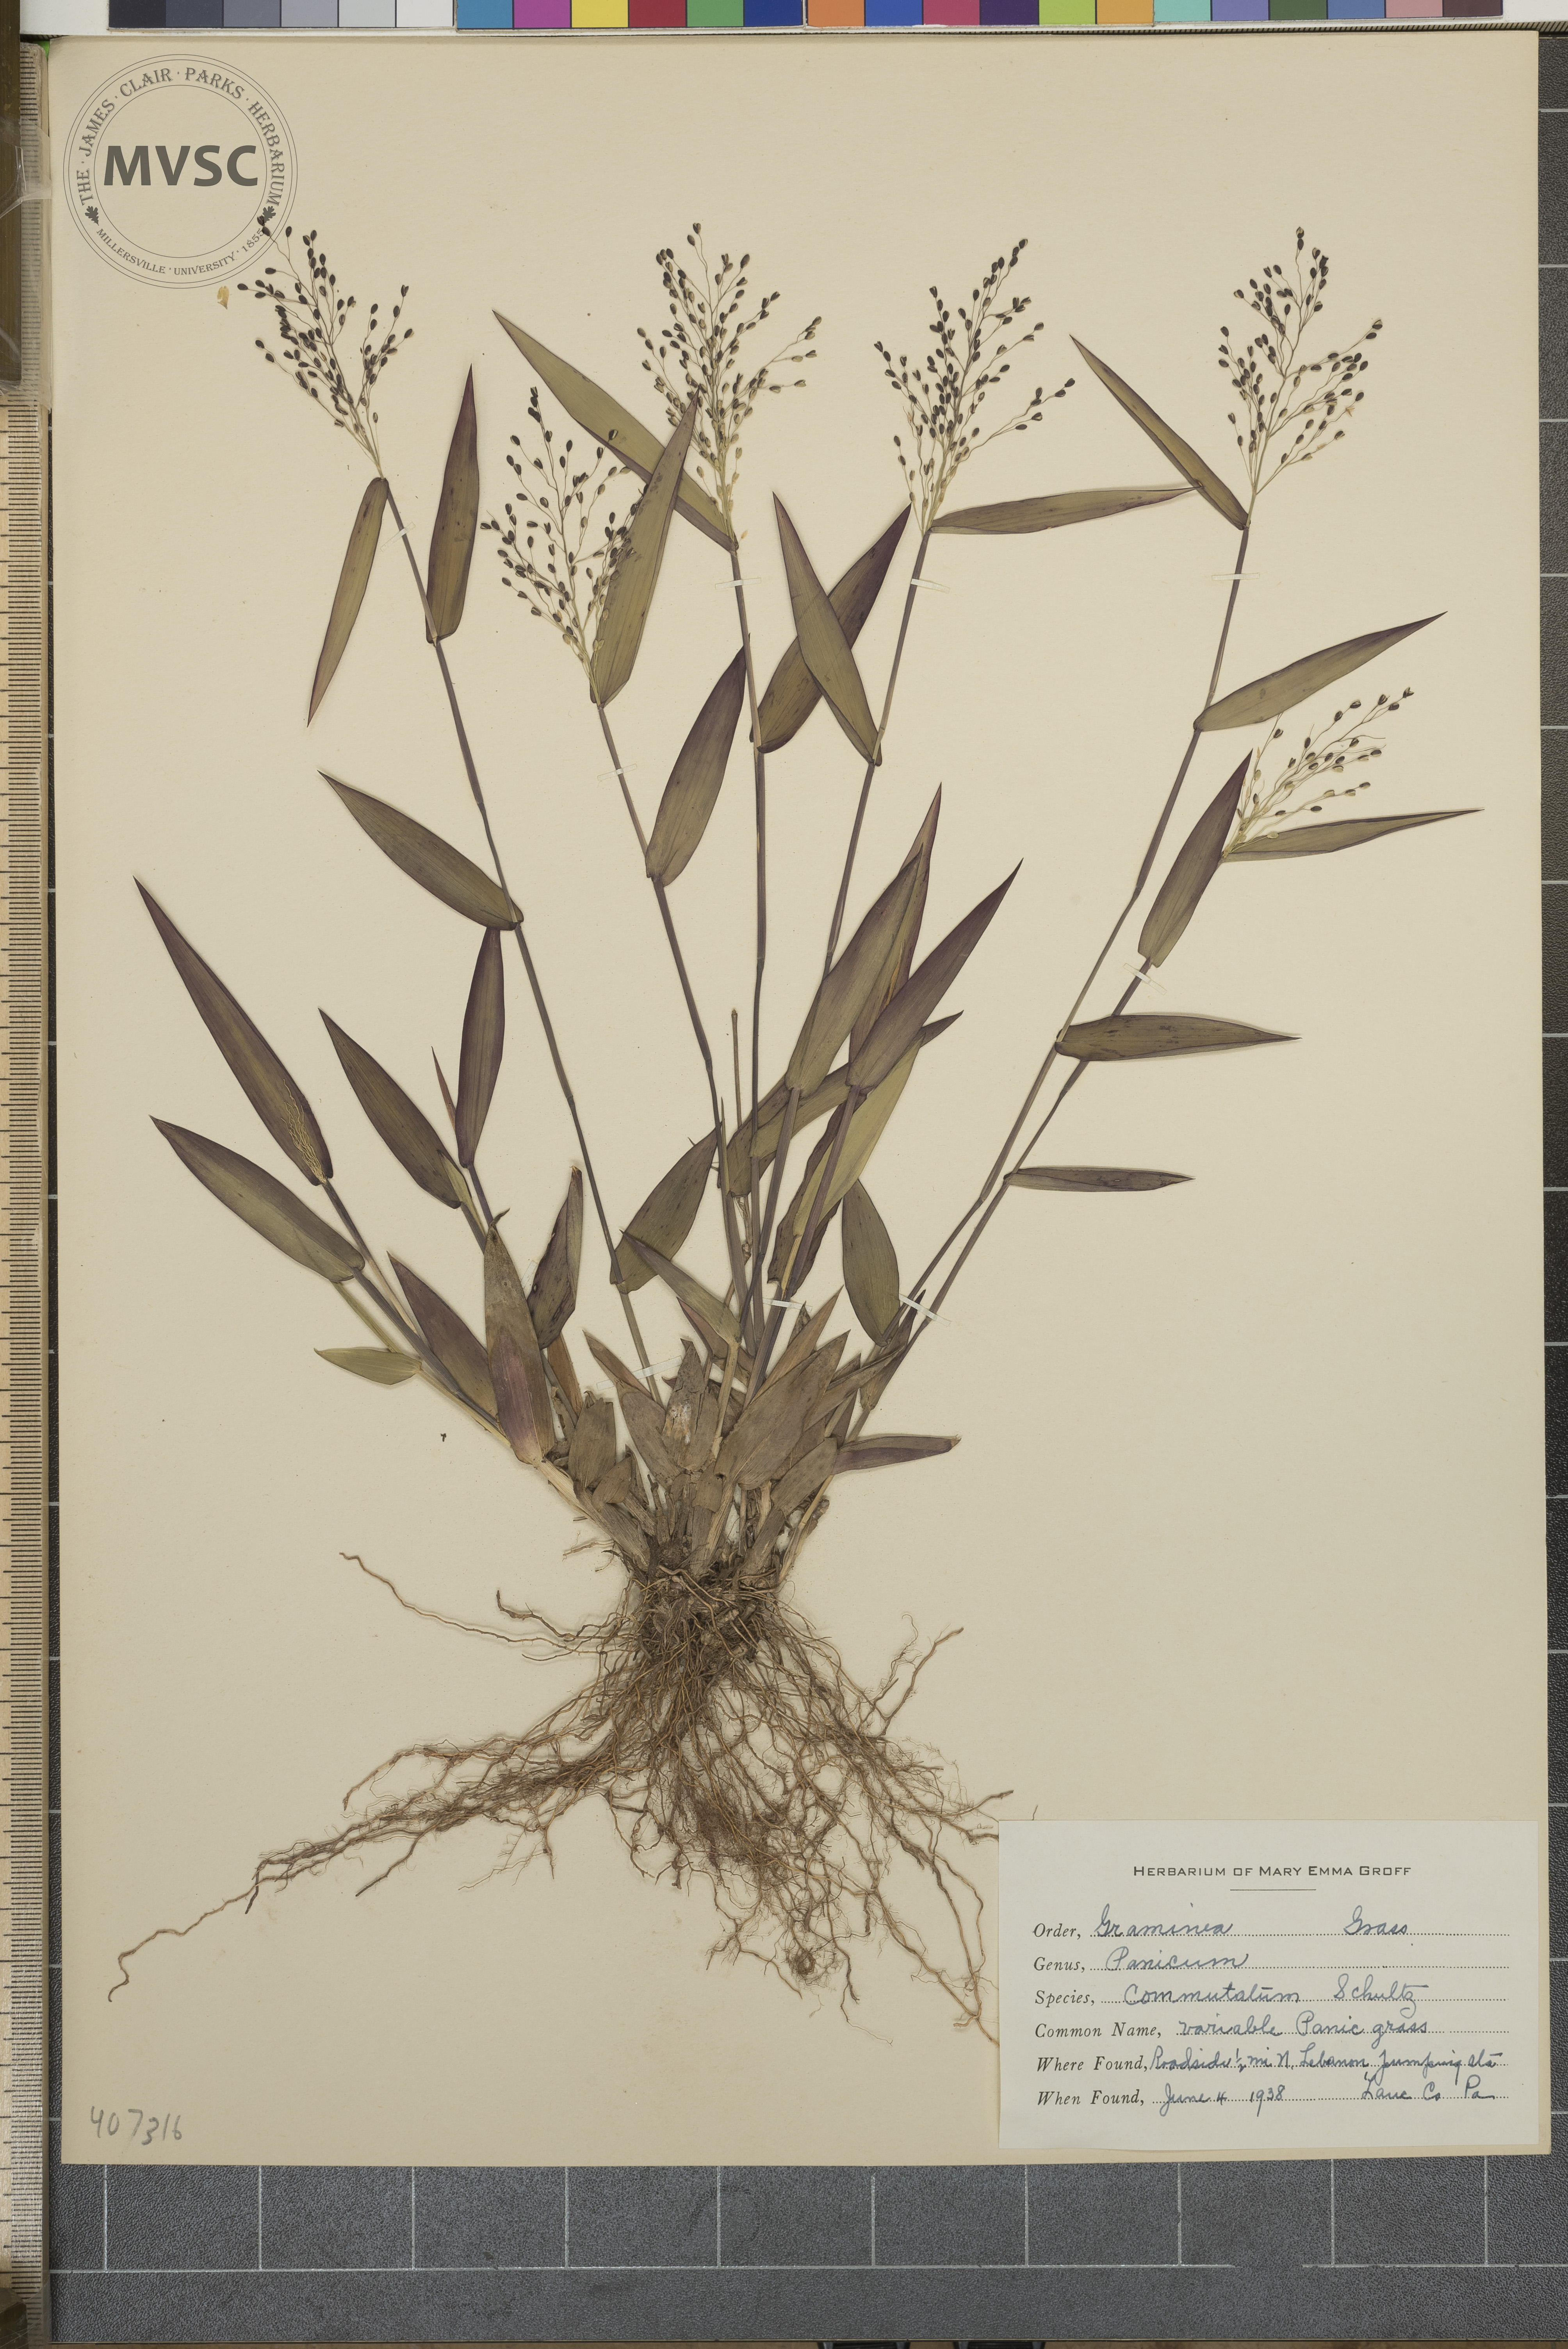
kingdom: Plantae
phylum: Tracheophyta
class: Liliopsida
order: Poales
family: Poaceae
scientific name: Poaceae
